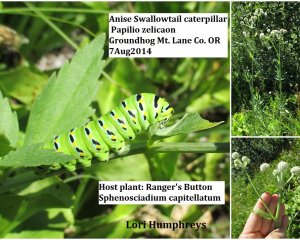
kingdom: Animalia
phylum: Arthropoda
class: Insecta
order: Lepidoptera
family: Papilionidae
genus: Papilio
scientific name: Papilio zelicaon
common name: Anise Swallowtail
